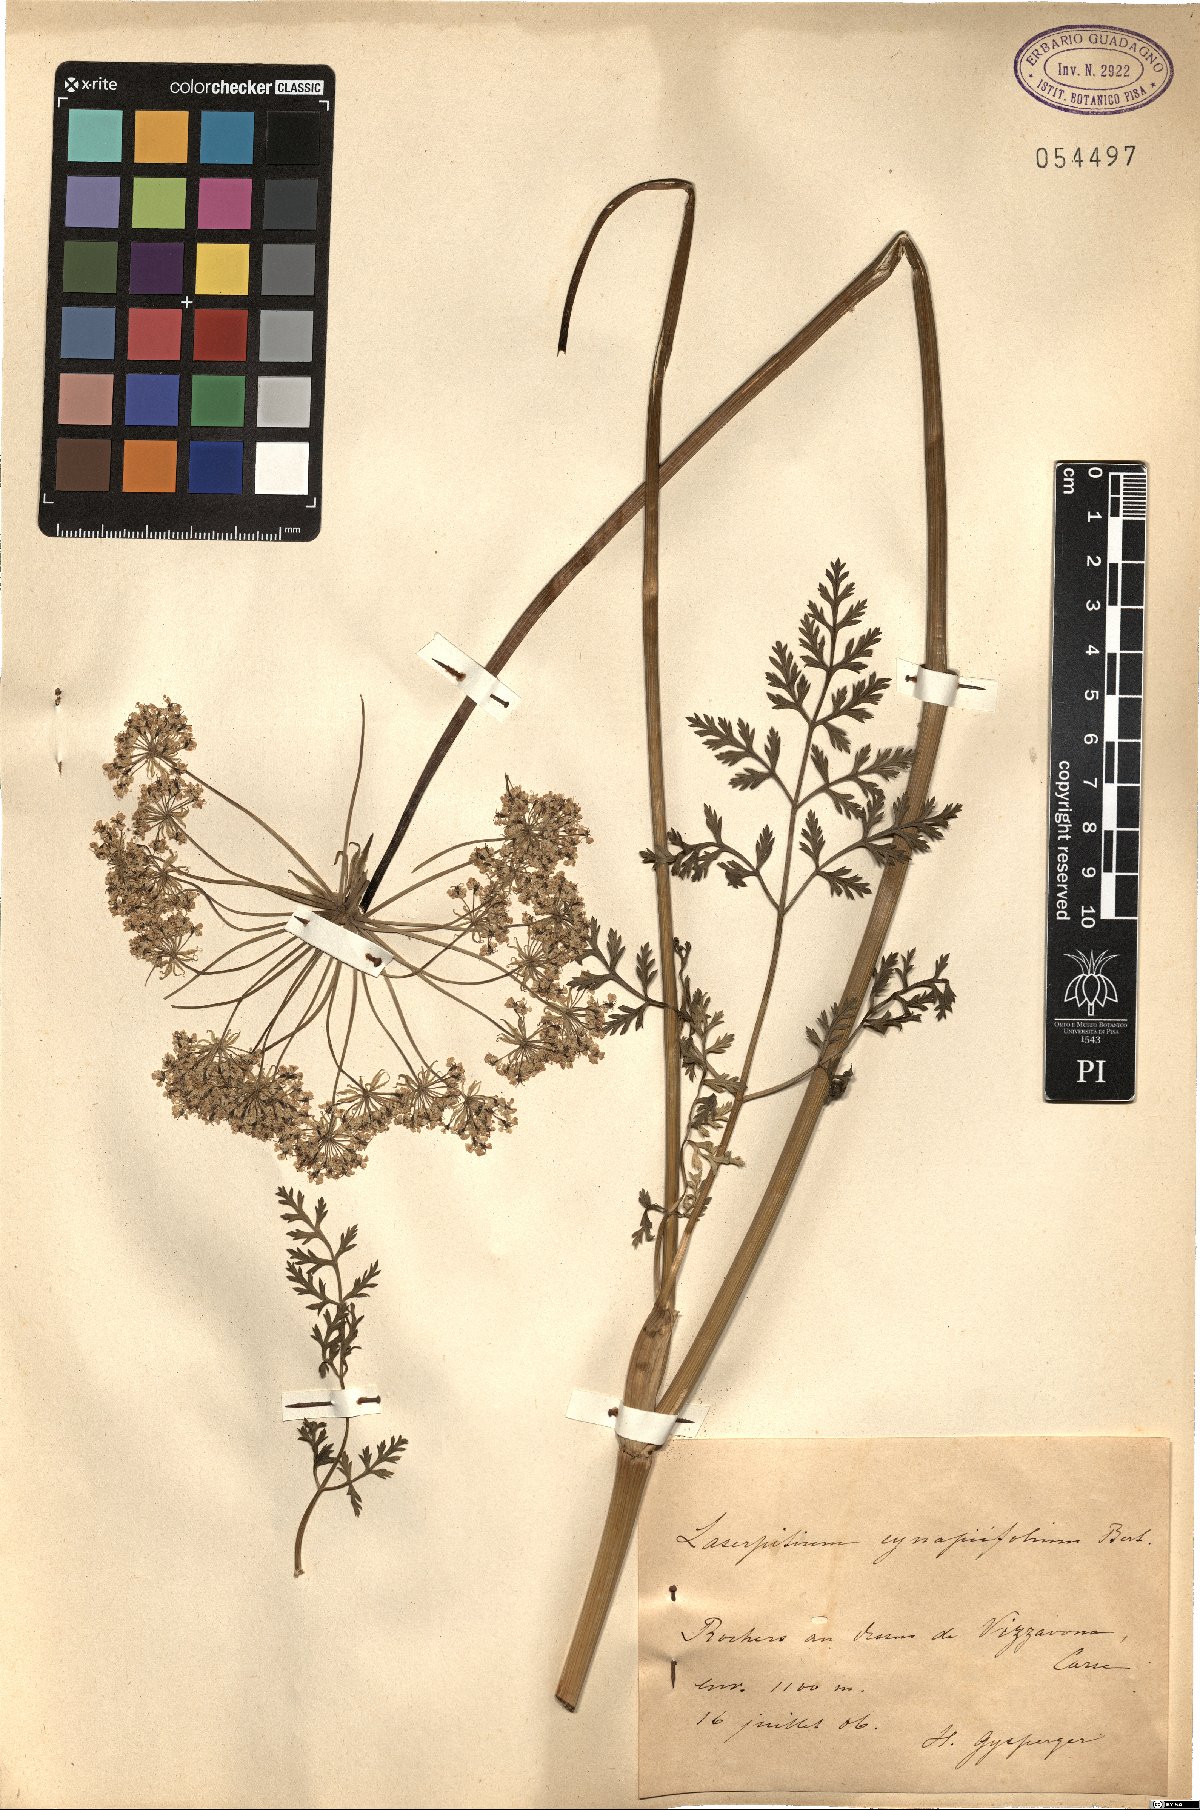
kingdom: Plantae
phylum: Tracheophyta
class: Magnoliopsida
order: Apiales
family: Apiaceae
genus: Laserpitium
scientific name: Laserpitium halleri
